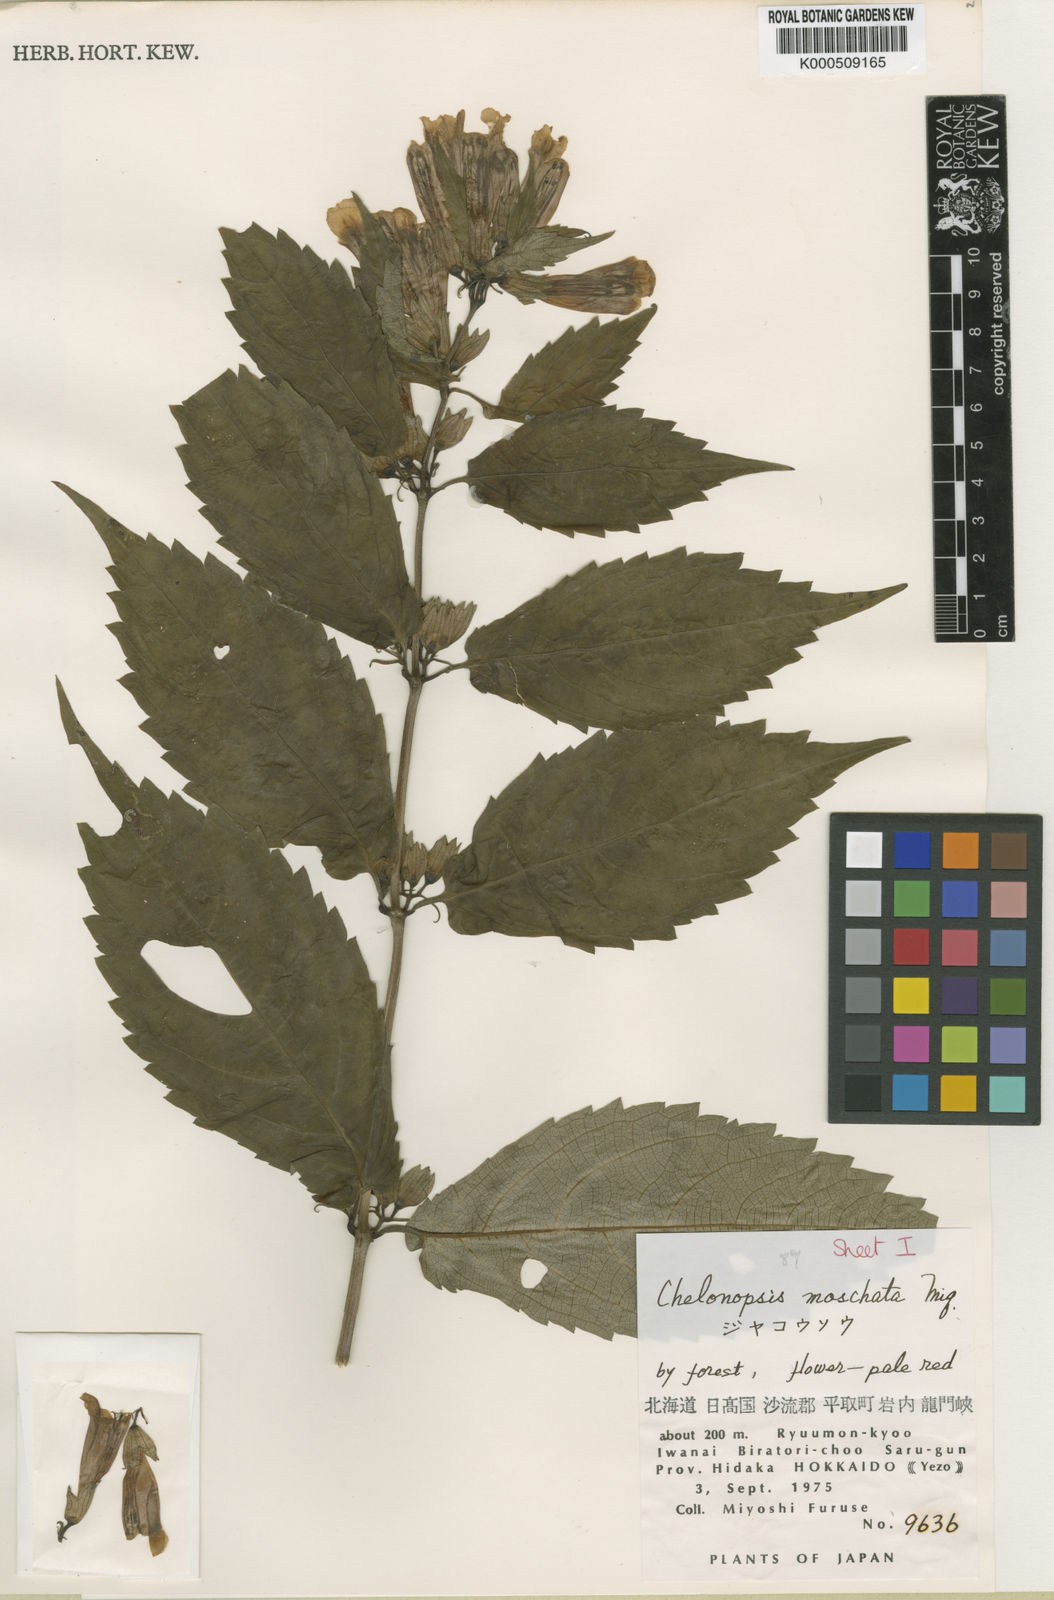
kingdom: Plantae
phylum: Tracheophyta
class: Magnoliopsida
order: Lamiales
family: Lamiaceae
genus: Chelonopsis
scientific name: Chelonopsis moschata
